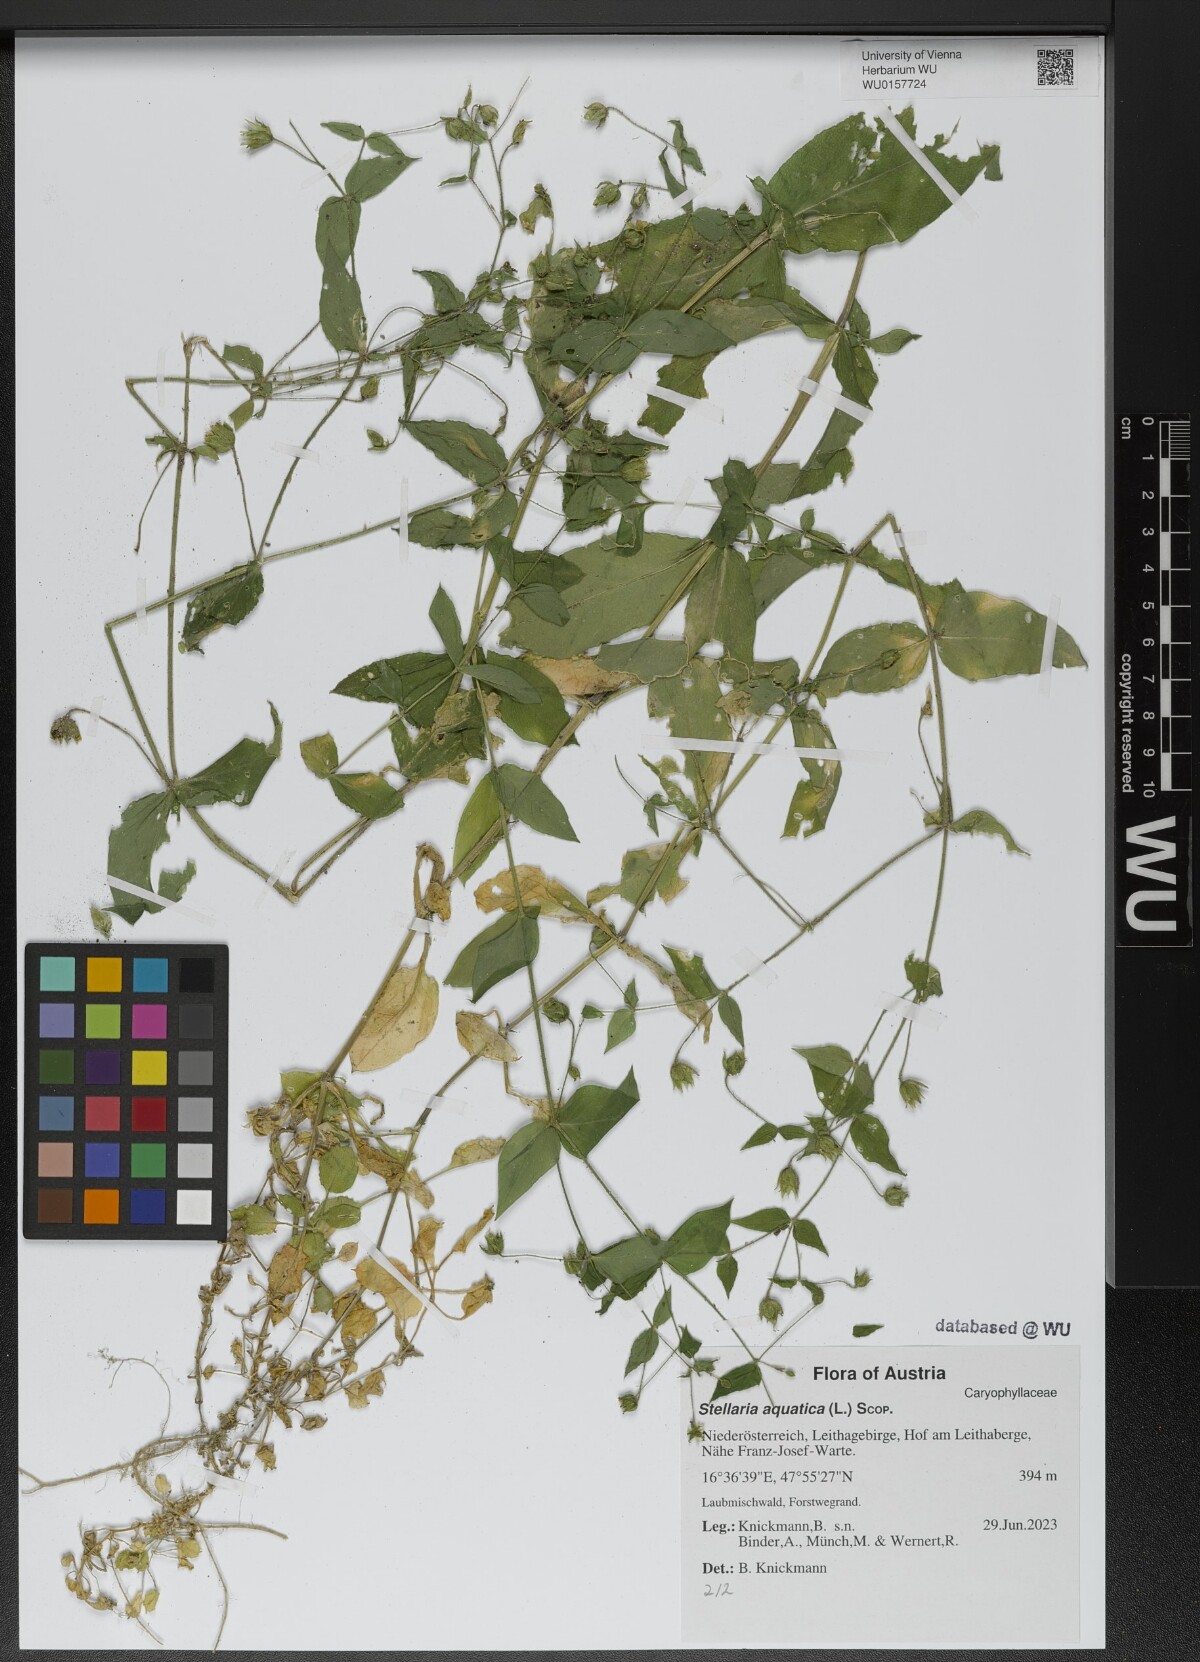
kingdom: Plantae
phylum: Tracheophyta
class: Magnoliopsida
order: Caryophyllales
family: Caryophyllaceae
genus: Stellaria
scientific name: Stellaria aquatica
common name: Water chickweed
